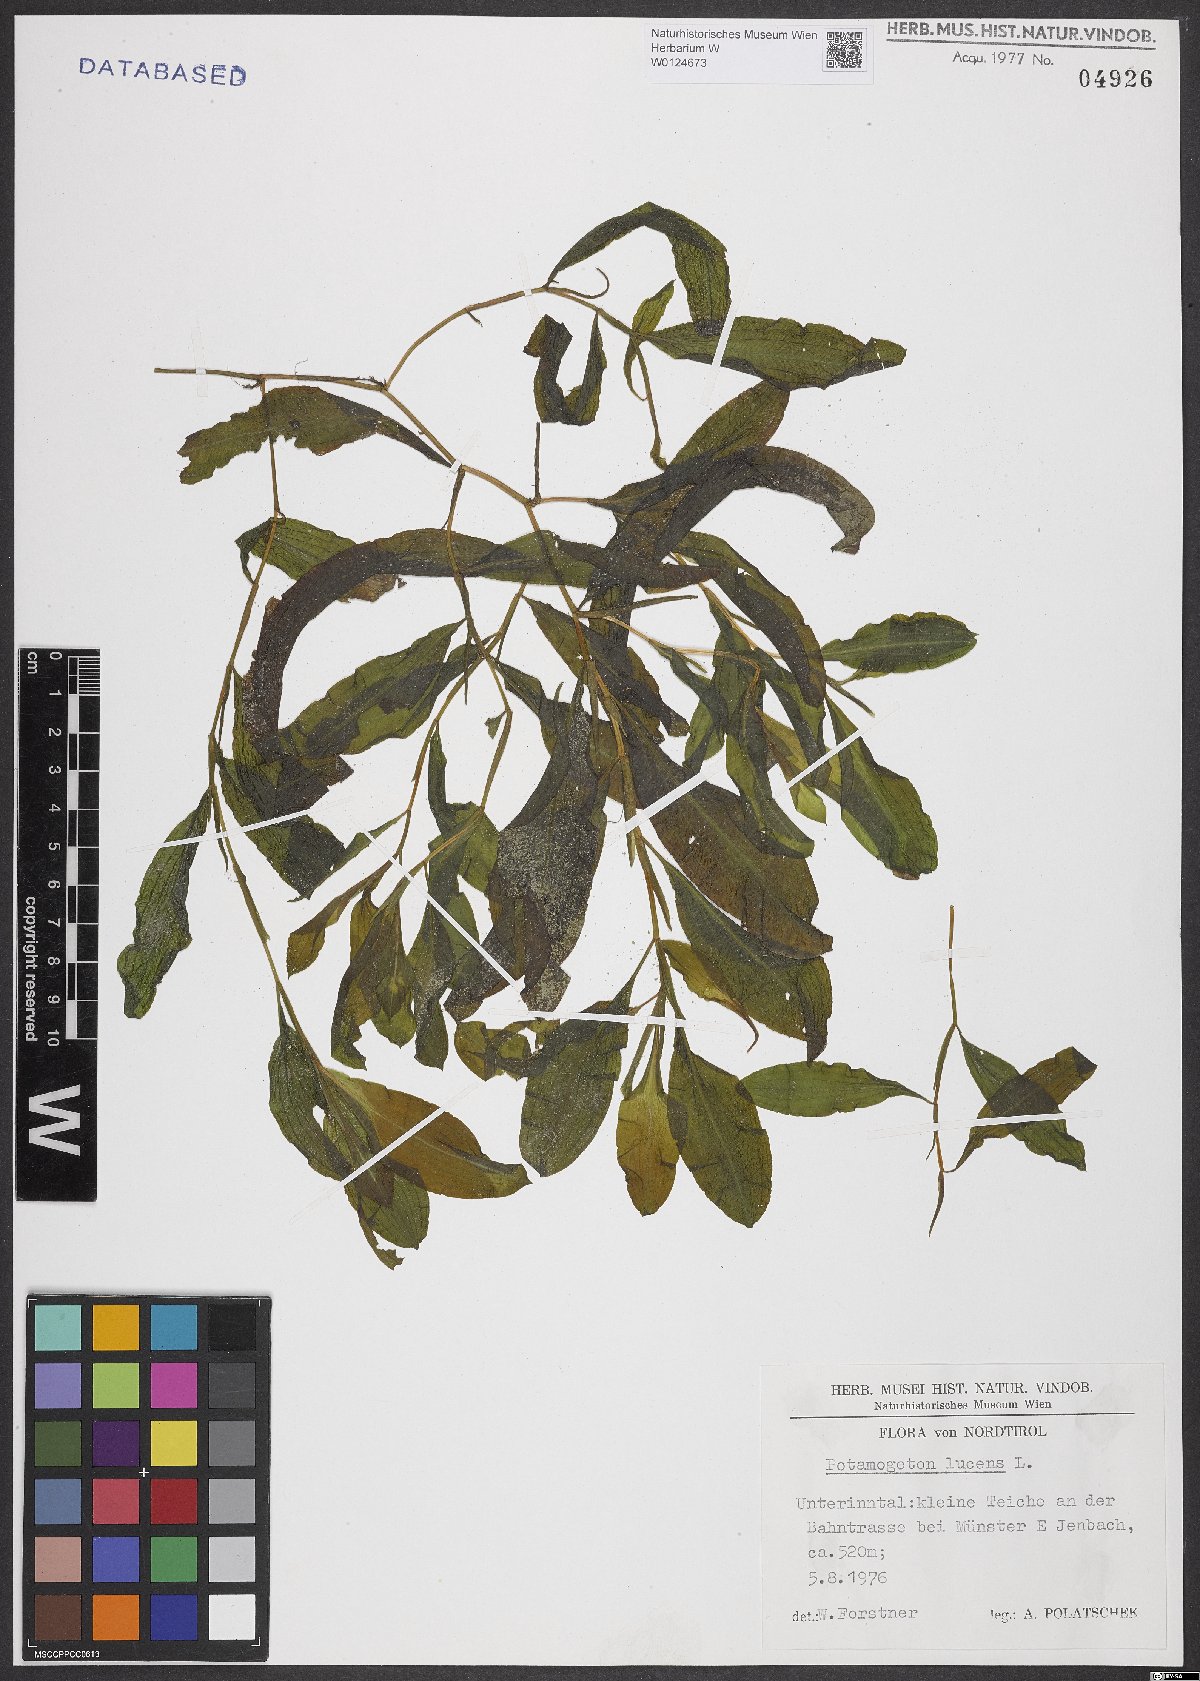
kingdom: Plantae
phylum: Tracheophyta
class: Liliopsida
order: Alismatales
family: Potamogetonaceae
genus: Potamogeton
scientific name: Potamogeton lucens
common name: Shining pondweed
